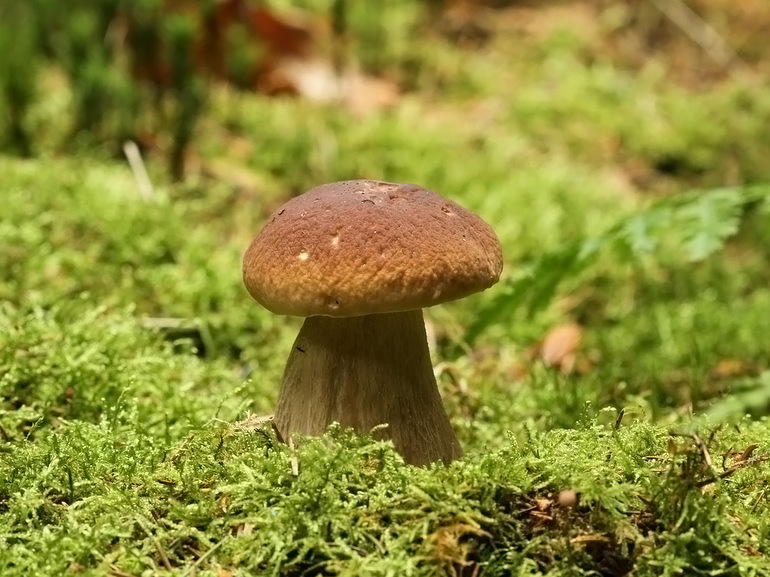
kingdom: Fungi
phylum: Basidiomycota
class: Agaricomycetes
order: Boletales
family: Boletaceae
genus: Boletus
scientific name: Boletus edulis
